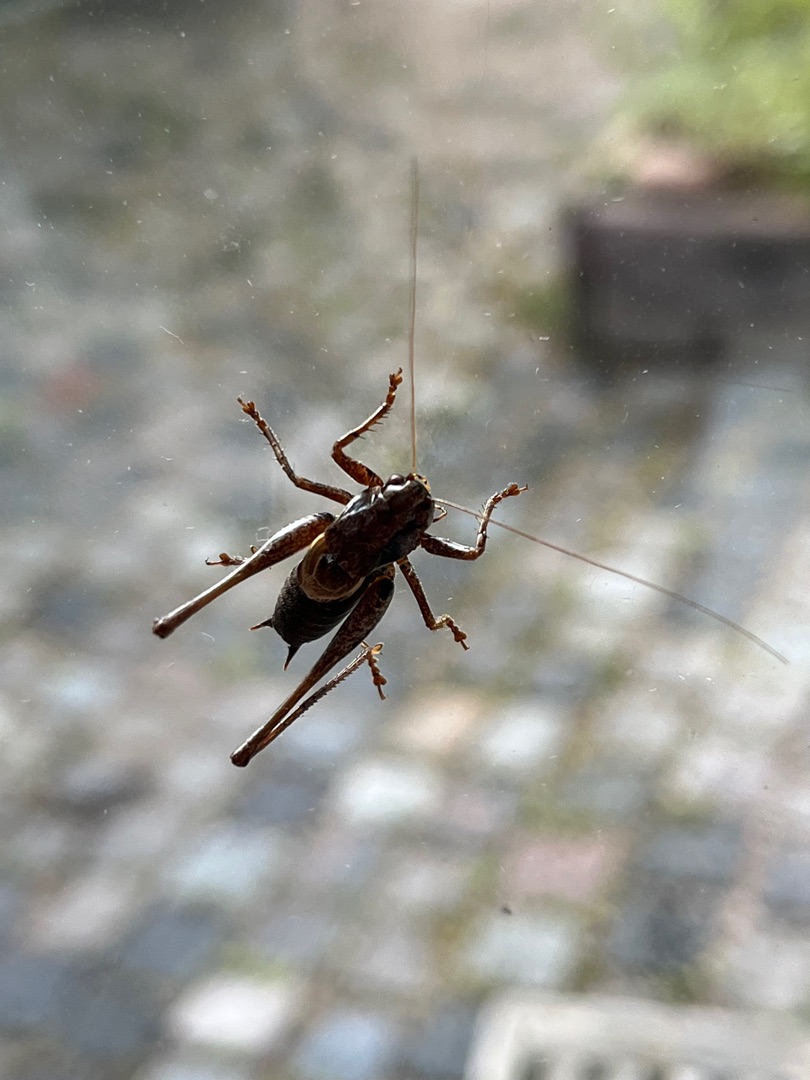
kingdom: Animalia
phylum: Arthropoda
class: Insecta
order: Orthoptera
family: Tettigoniidae
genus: Pholidoptera
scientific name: Pholidoptera griseoaptera
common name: Buskgræshoppe
